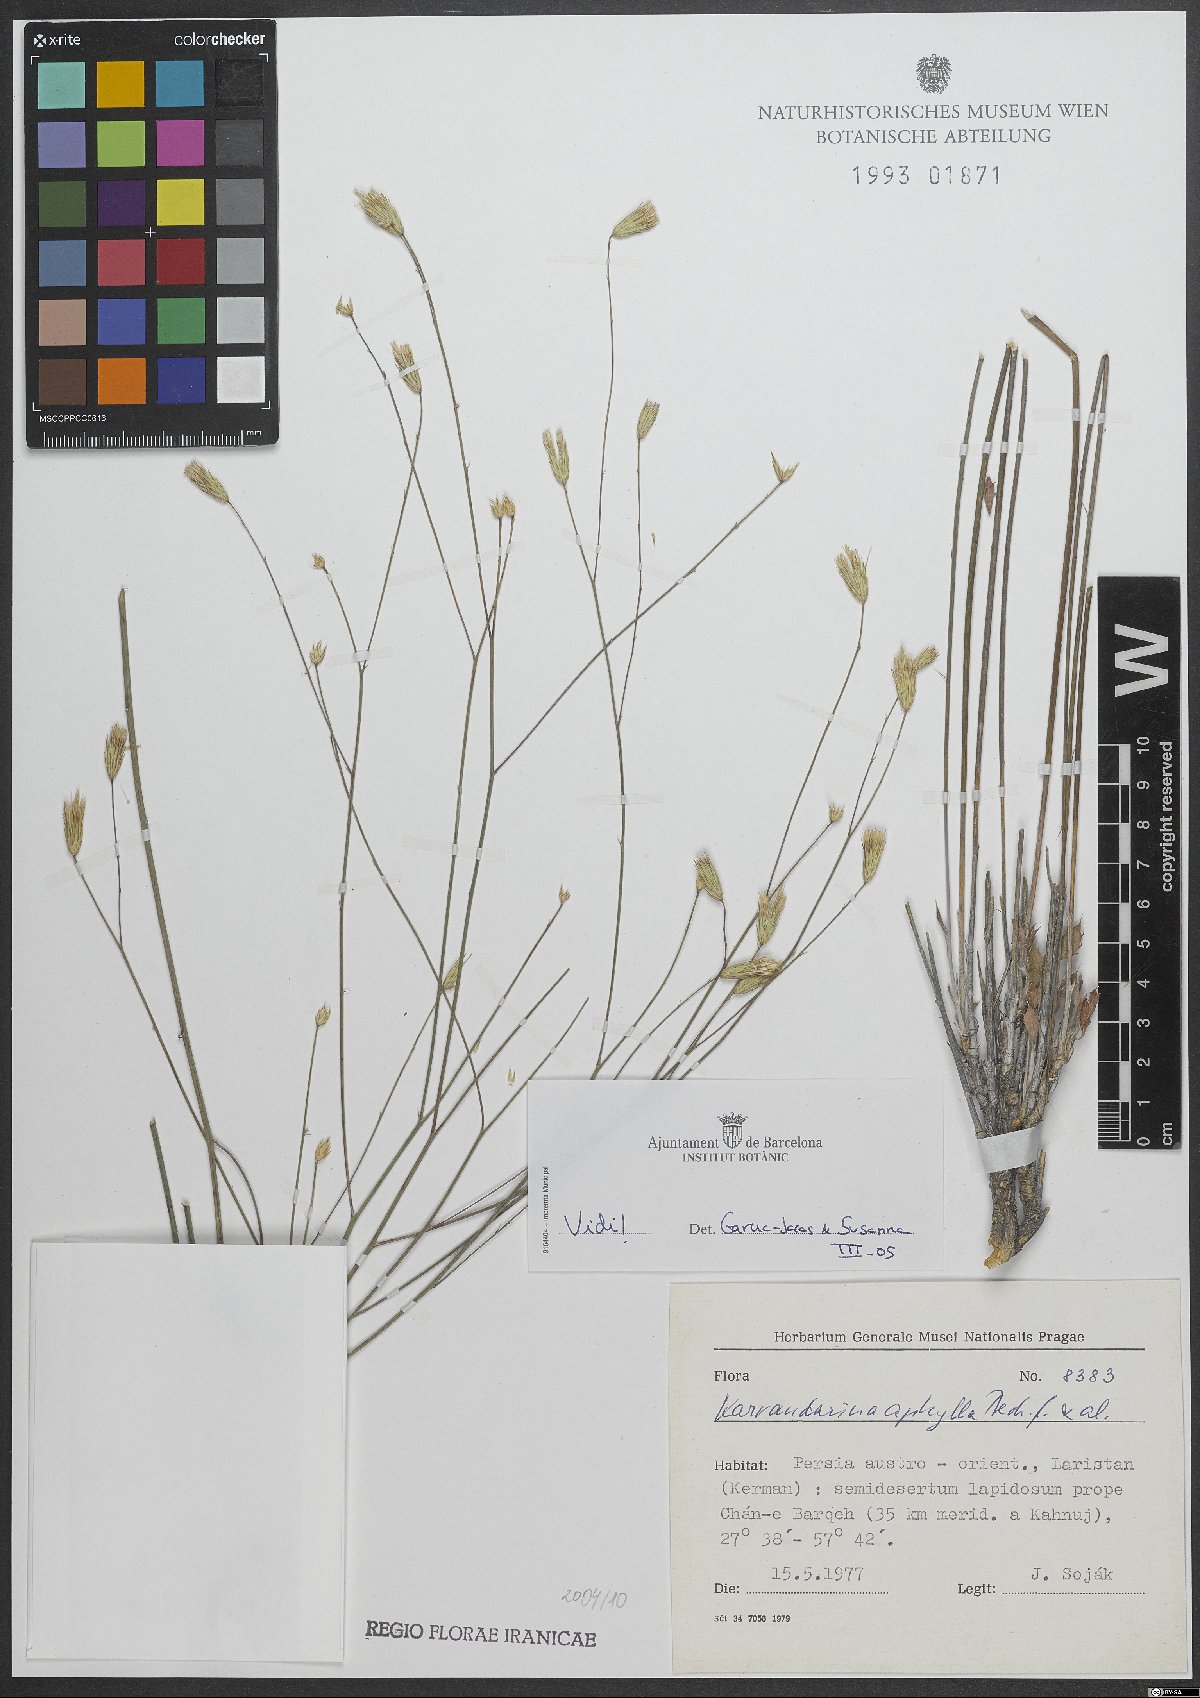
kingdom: Plantae
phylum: Tracheophyta
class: Magnoliopsida
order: Asterales
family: Asteraceae
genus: Karvandarina
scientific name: Karvandarina aphylla
